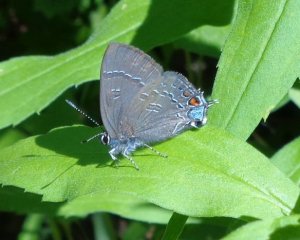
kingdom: Animalia
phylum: Arthropoda
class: Insecta
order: Lepidoptera
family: Lycaenidae
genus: Satyrium
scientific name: Satyrium calanus
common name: Banded Hairstreak
